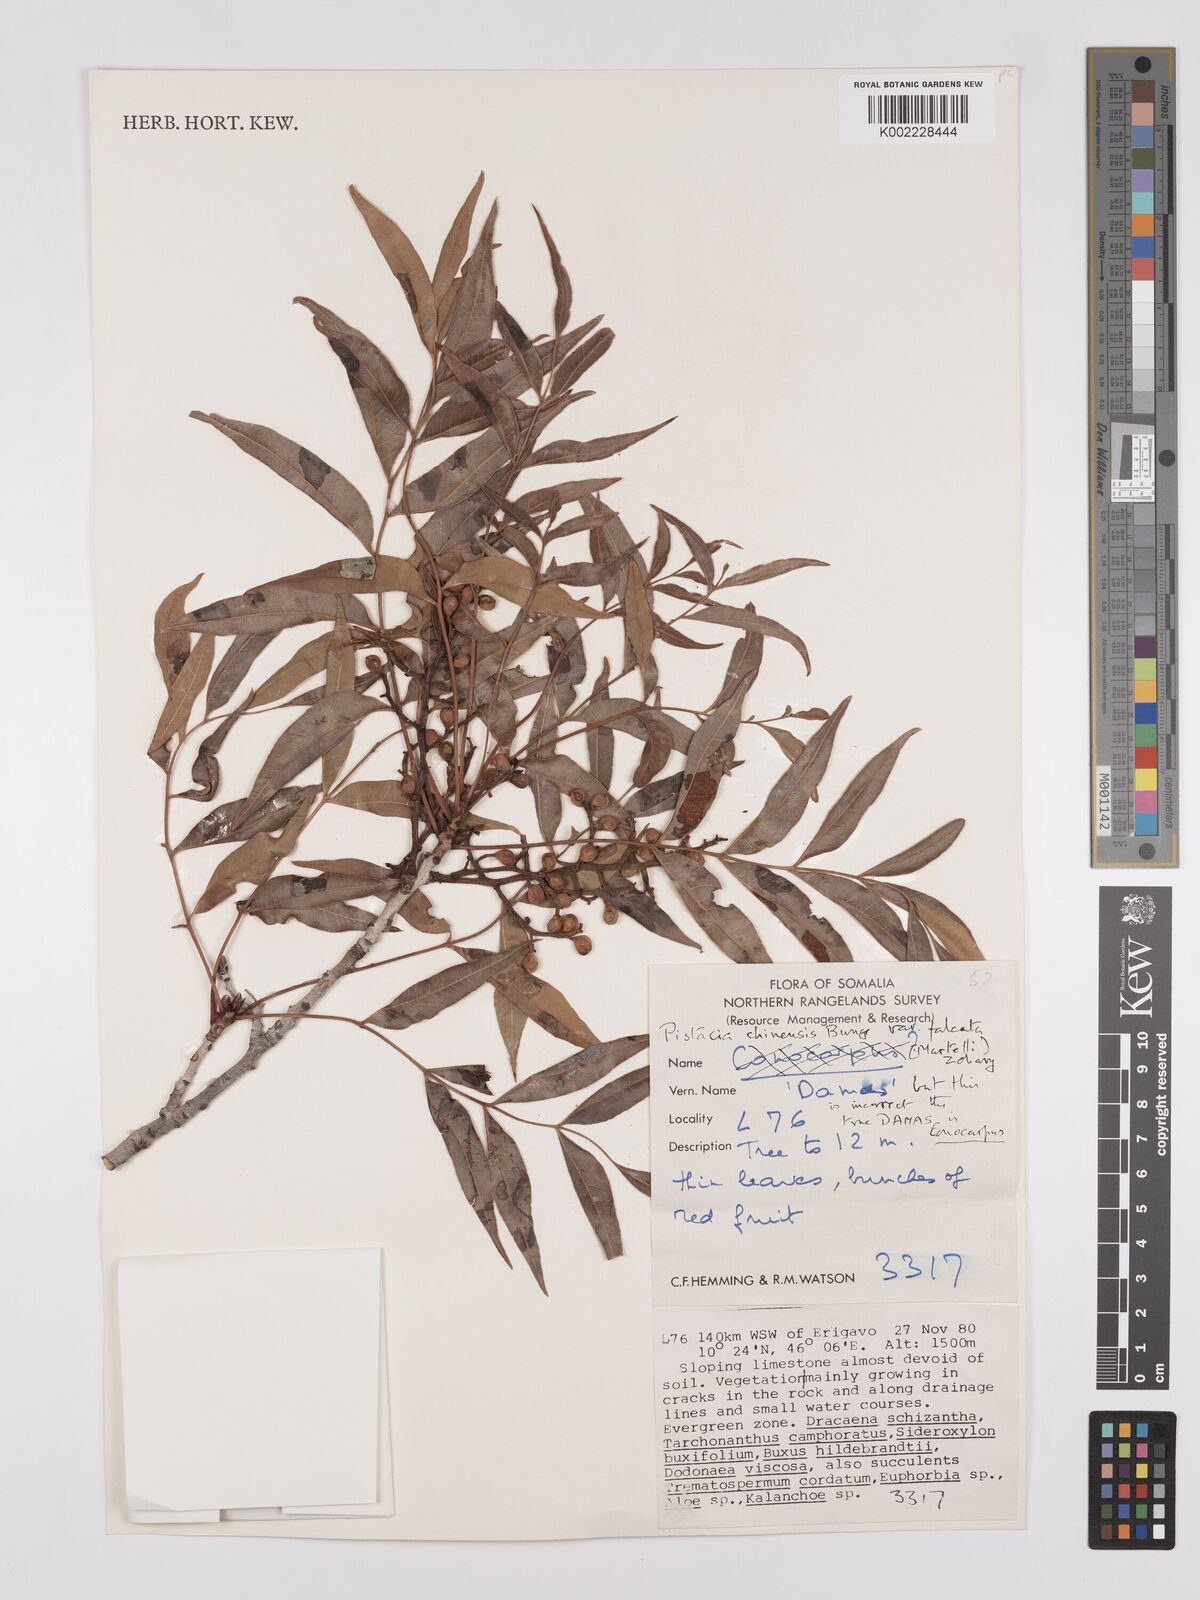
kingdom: Plantae
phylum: Tracheophyta
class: Magnoliopsida
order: Sapindales
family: Anacardiaceae
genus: Pistacia
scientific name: Pistacia falcata
